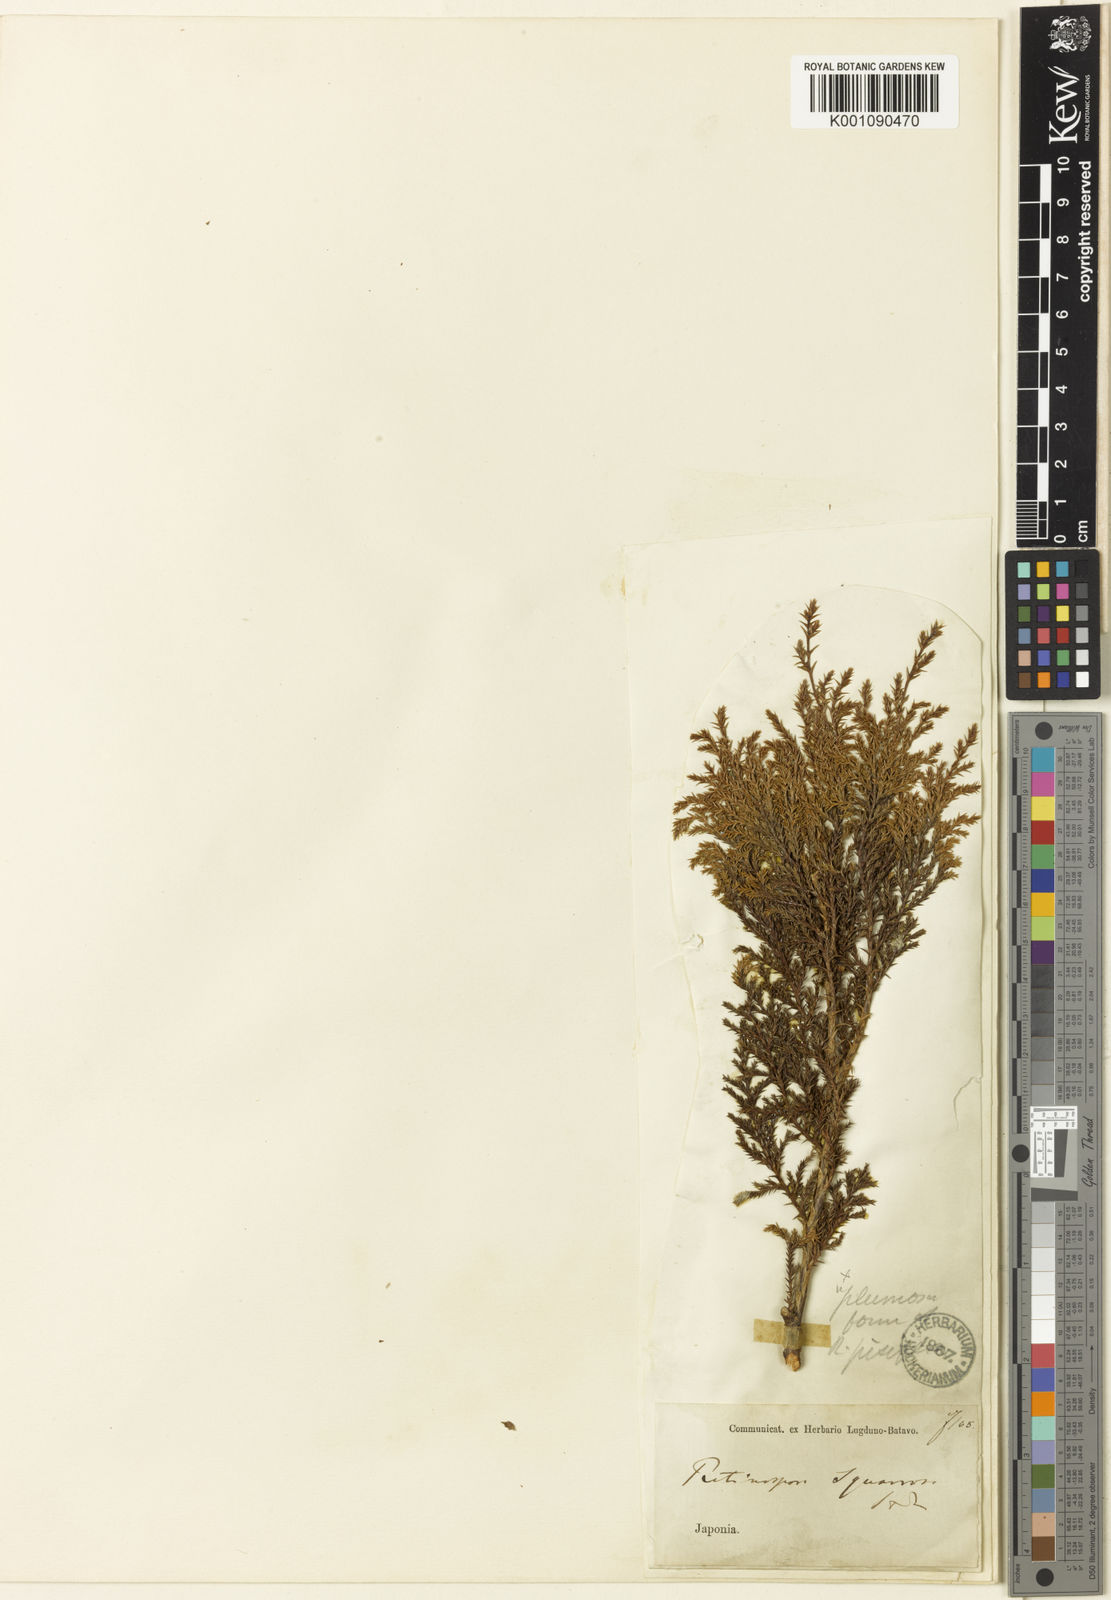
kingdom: Plantae
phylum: Tracheophyta
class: Pinopsida
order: Pinales
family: Cupressaceae
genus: Chamaecyparis
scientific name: Chamaecyparis pisifera
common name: Sawara cypress
